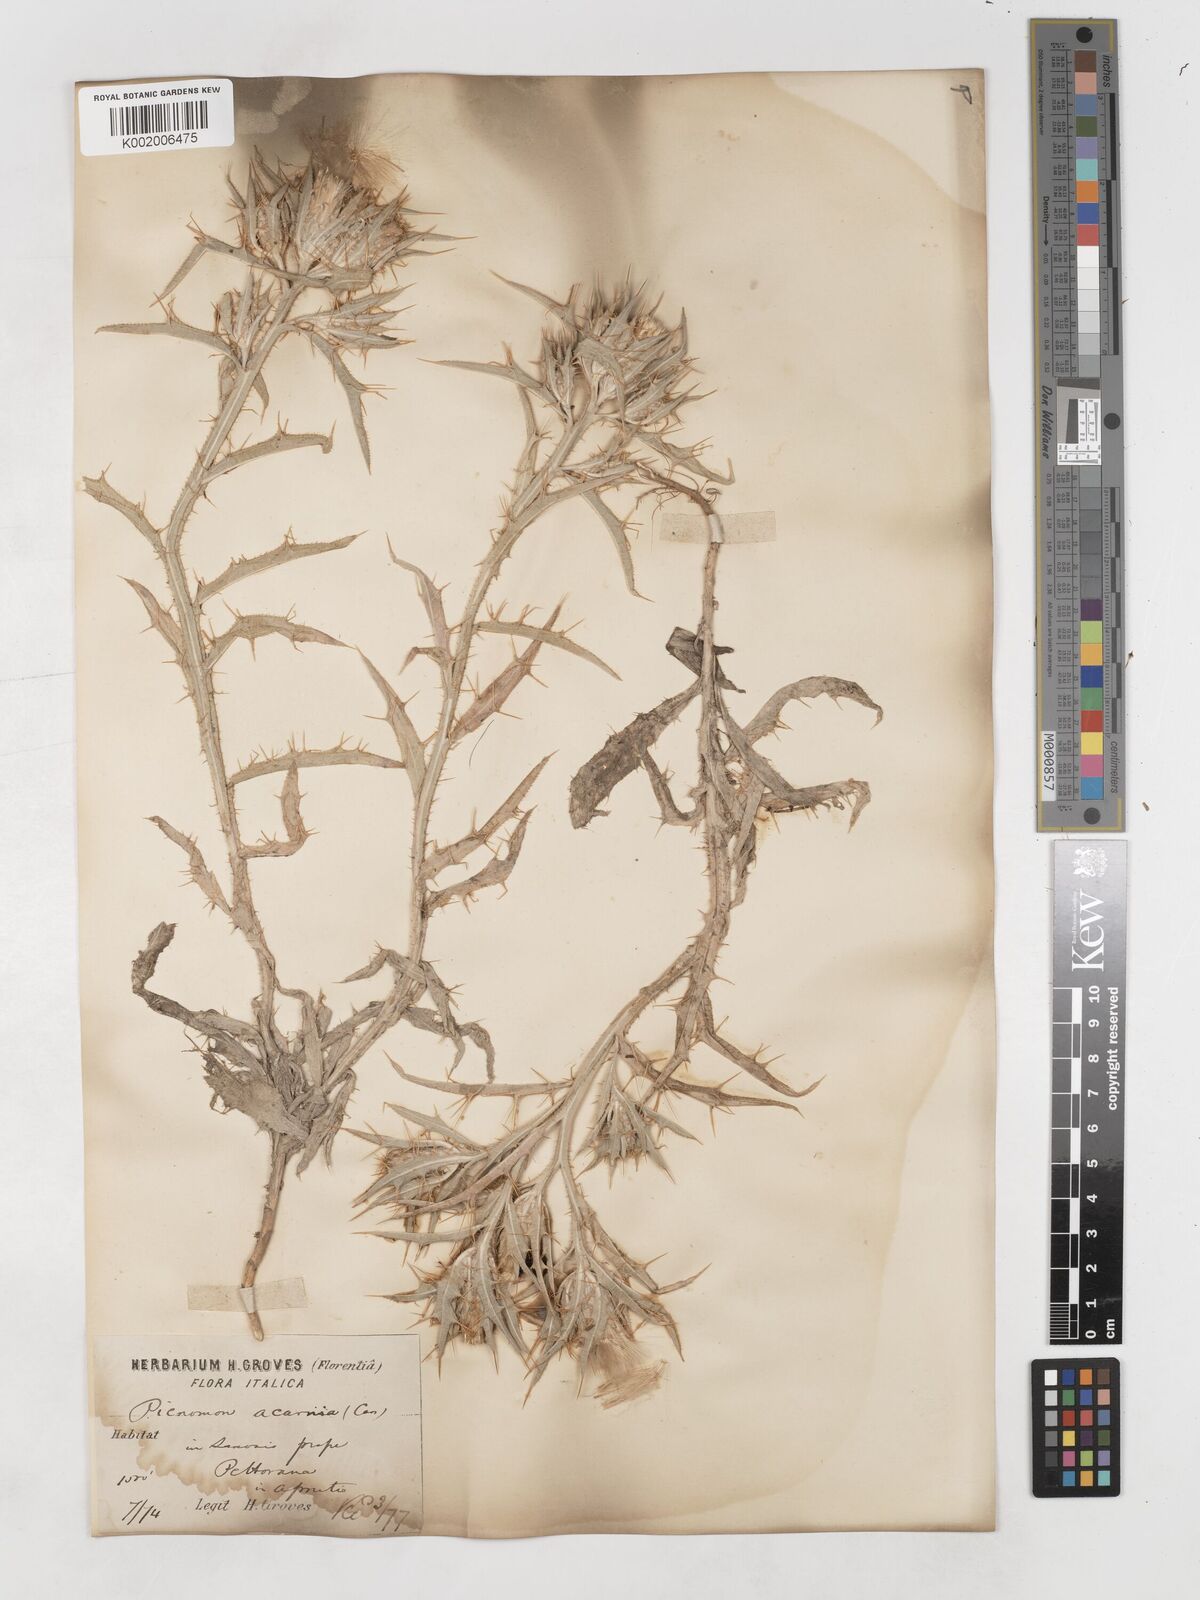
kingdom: Plantae
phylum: Tracheophyta
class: Magnoliopsida
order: Asterales
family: Asteraceae
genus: Picnomon
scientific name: Picnomon acarna
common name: Soldier thistle
